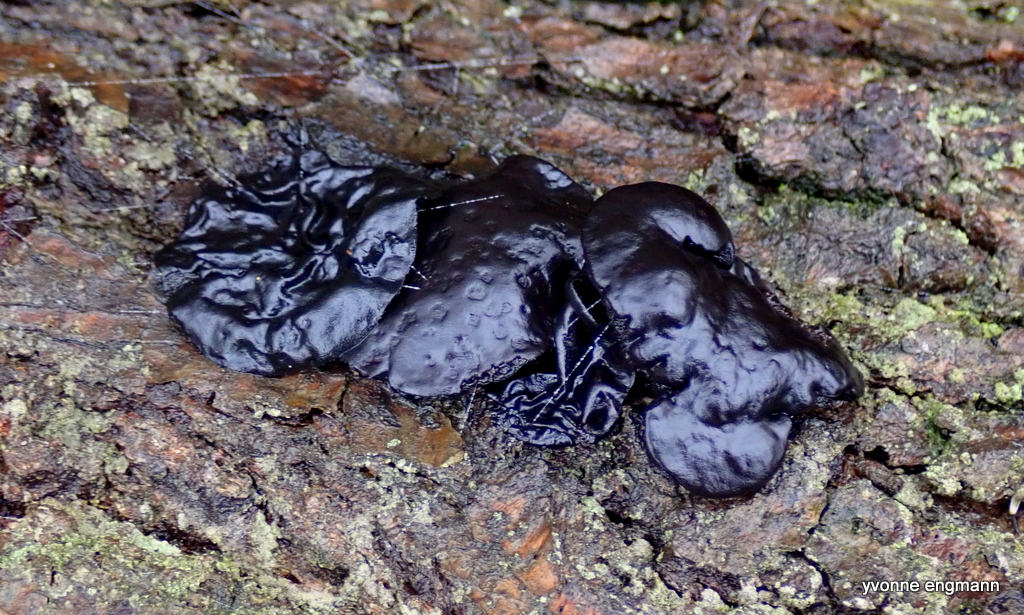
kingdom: Fungi
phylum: Ascomycota
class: Leotiomycetes
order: Phacidiales
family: Phacidiaceae
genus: Bulgaria
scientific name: Bulgaria inquinans
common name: afsmittende topsvamp
